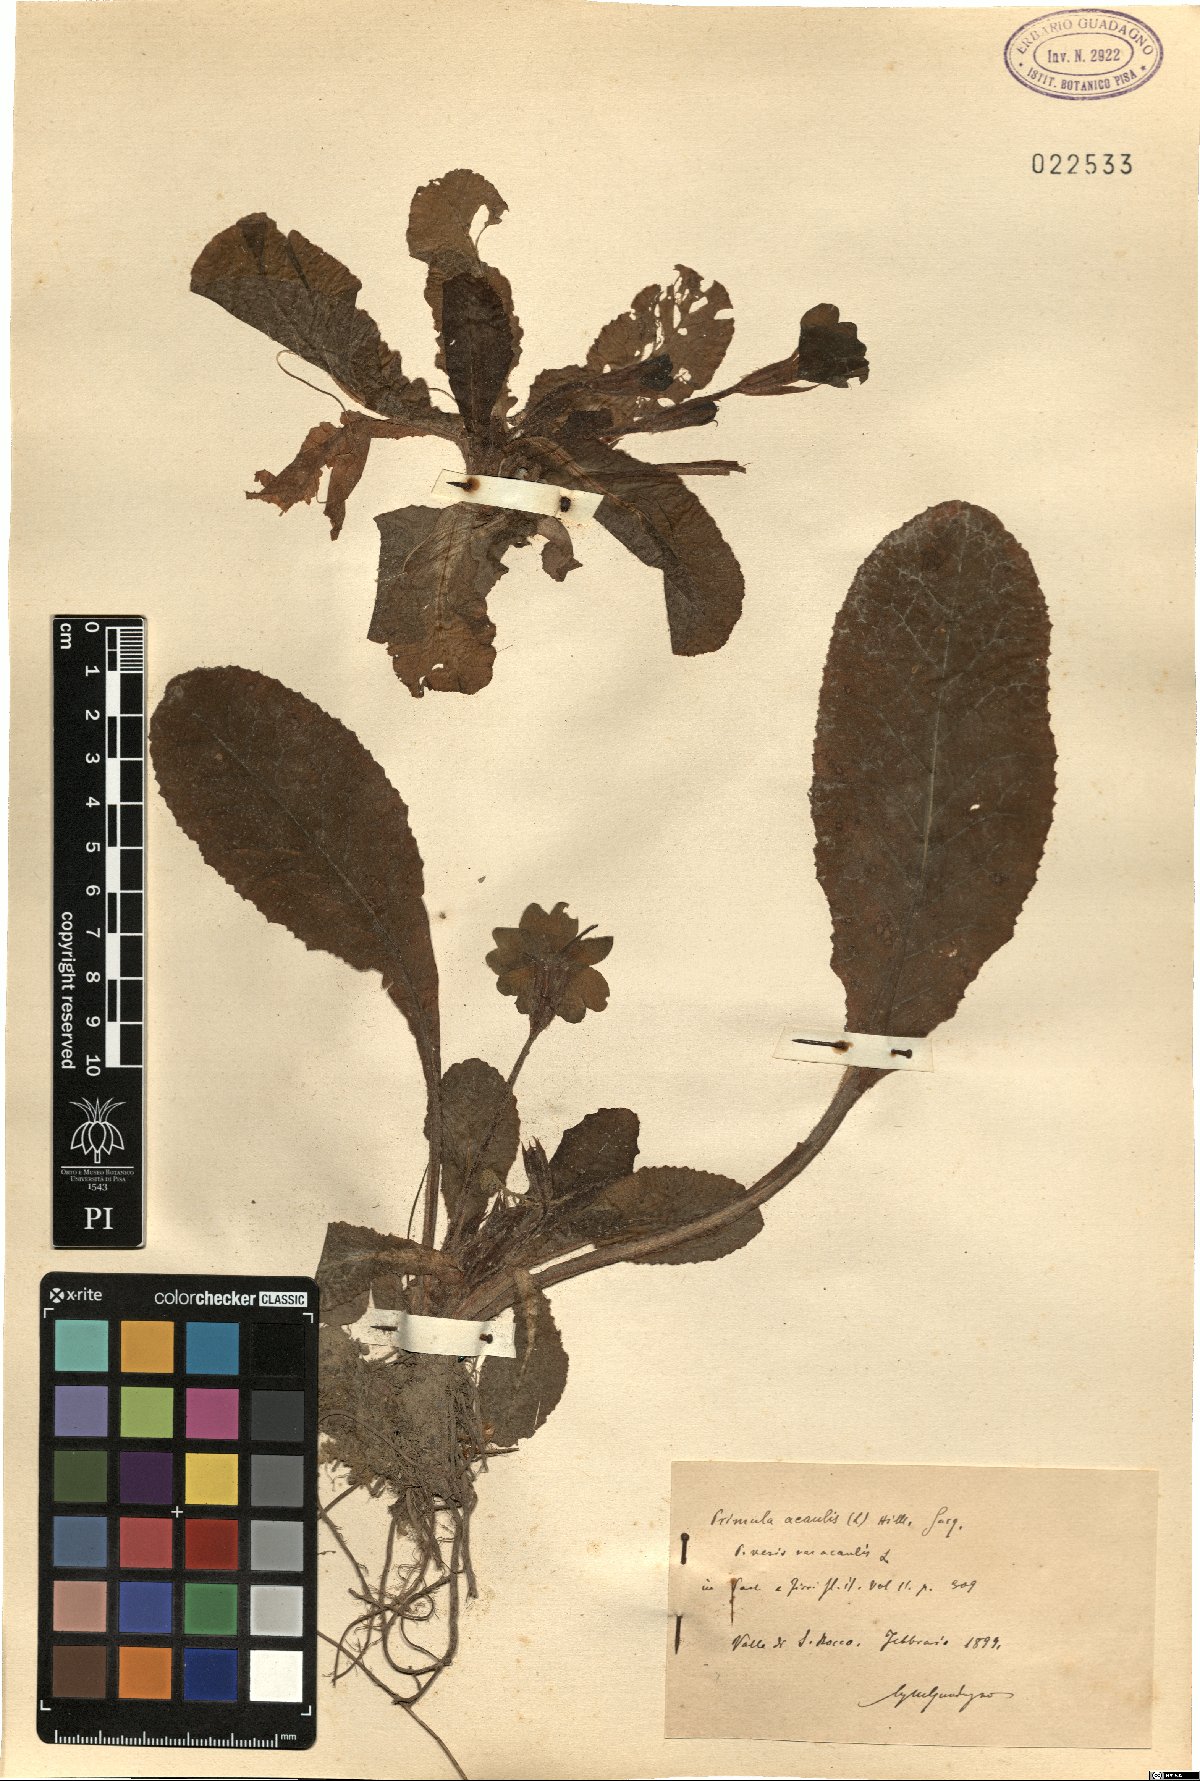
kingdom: Plantae
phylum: Tracheophyta
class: Magnoliopsida
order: Ericales
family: Primulaceae
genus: Primula
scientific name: Primula vulgaris
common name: Primrose
